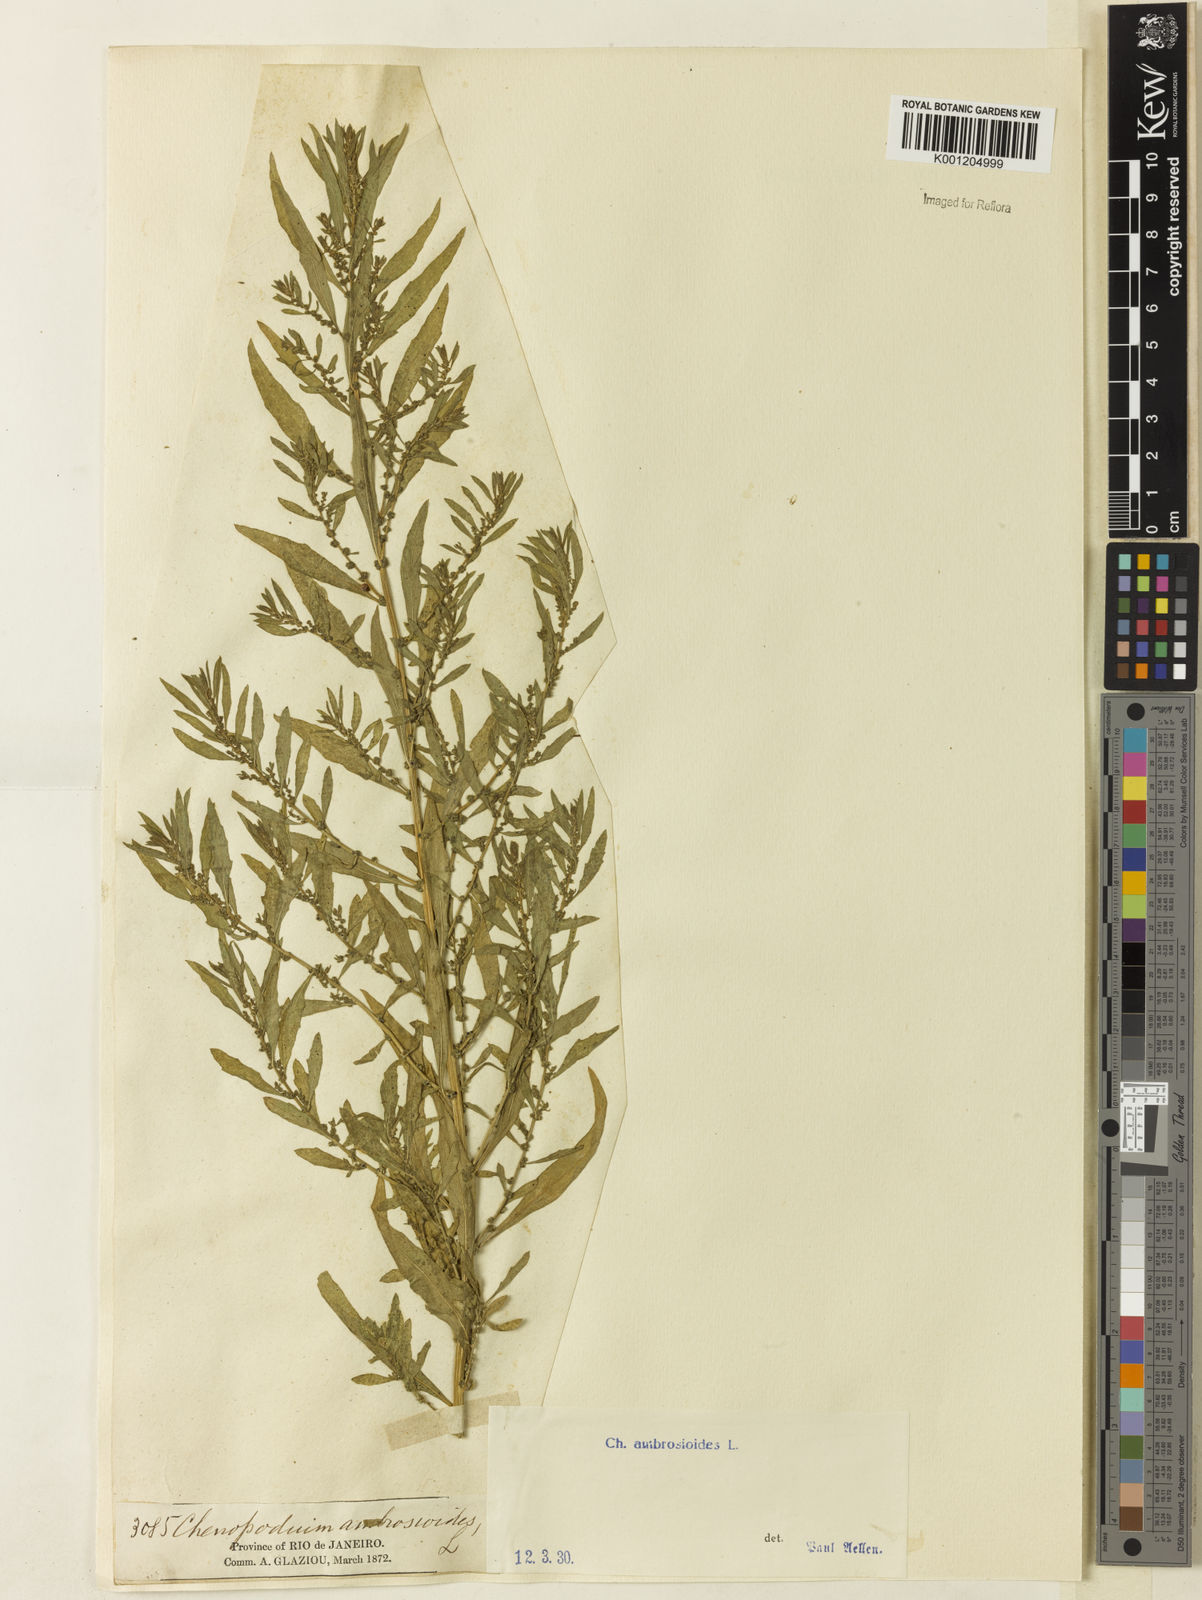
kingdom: Plantae
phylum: Tracheophyta
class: Magnoliopsida
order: Caryophyllales
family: Amaranthaceae
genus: Dysphania
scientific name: Dysphania ambrosioides
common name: Wormseed
